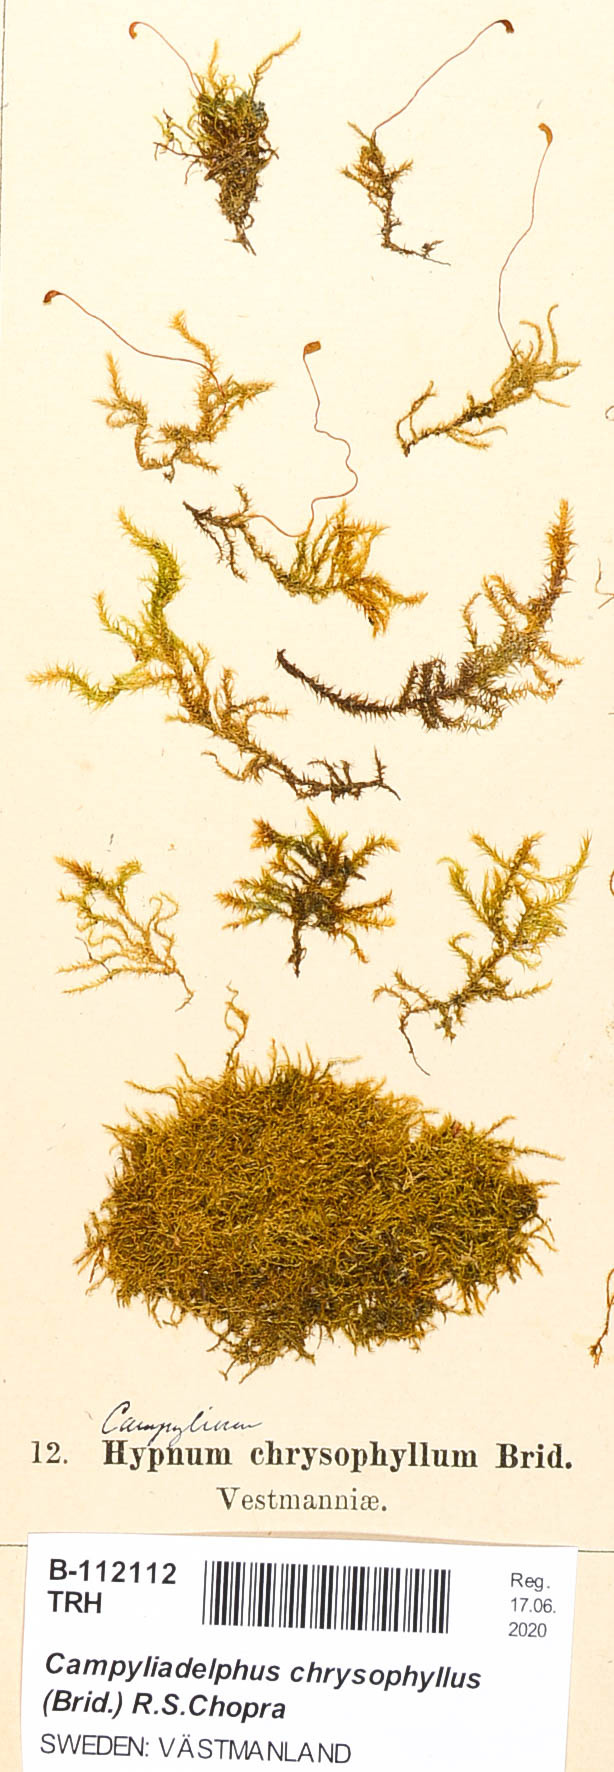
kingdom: Plantae
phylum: Bryophyta
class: Bryopsida
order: Hypnales
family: Amblystegiaceae
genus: Campylium
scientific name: Campylium chrysophyllum
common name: Goldenleaf campylium moss
